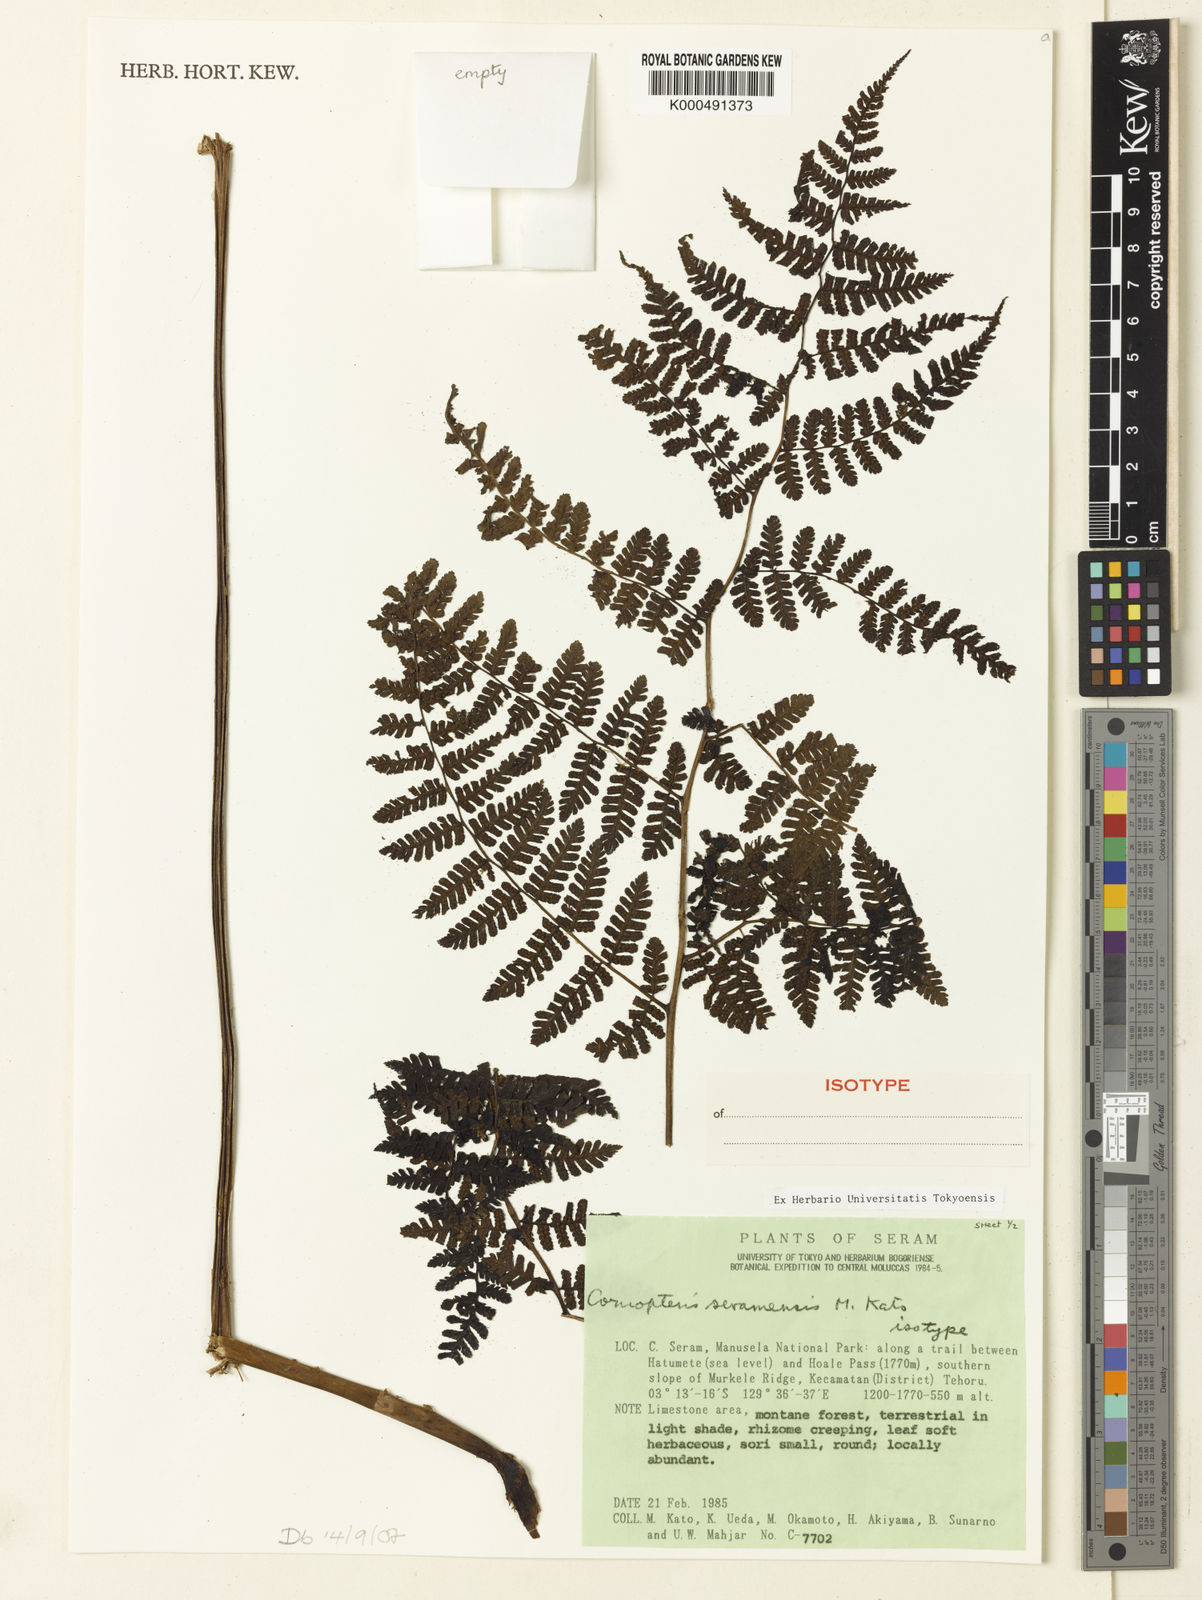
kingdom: Plantae
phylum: Tracheophyta
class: Polypodiopsida
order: Polypodiales
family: Athyriaceae
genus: Diplazium
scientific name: Diplazium
